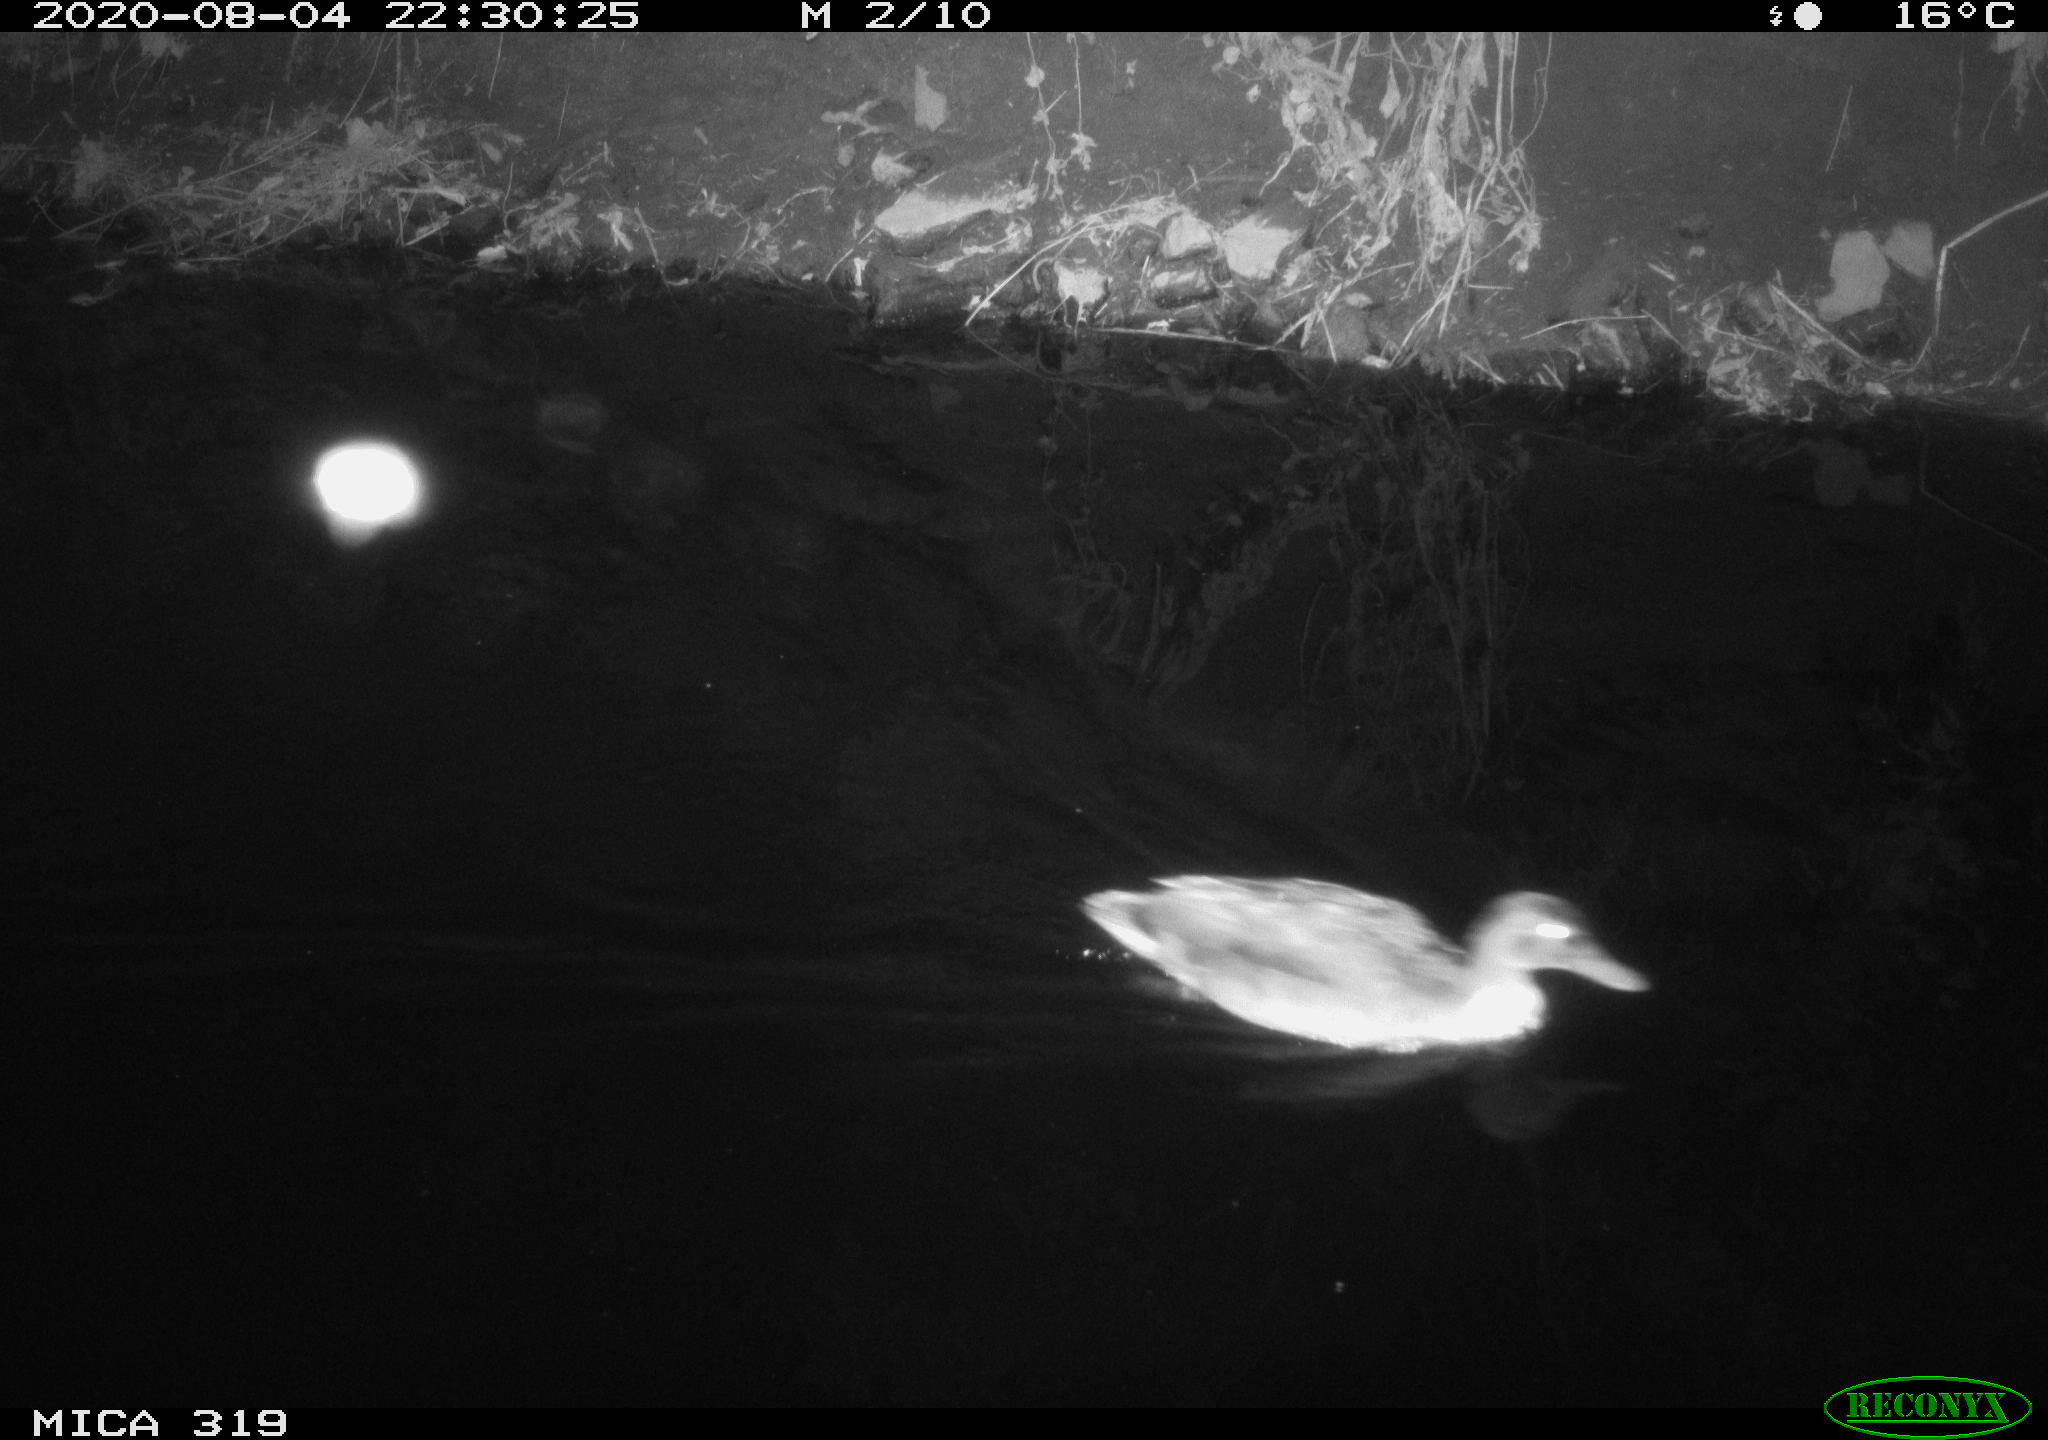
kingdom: Animalia
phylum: Chordata
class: Aves
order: Anseriformes
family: Anatidae
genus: Anas
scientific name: Anas platyrhynchos
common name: Mallard
